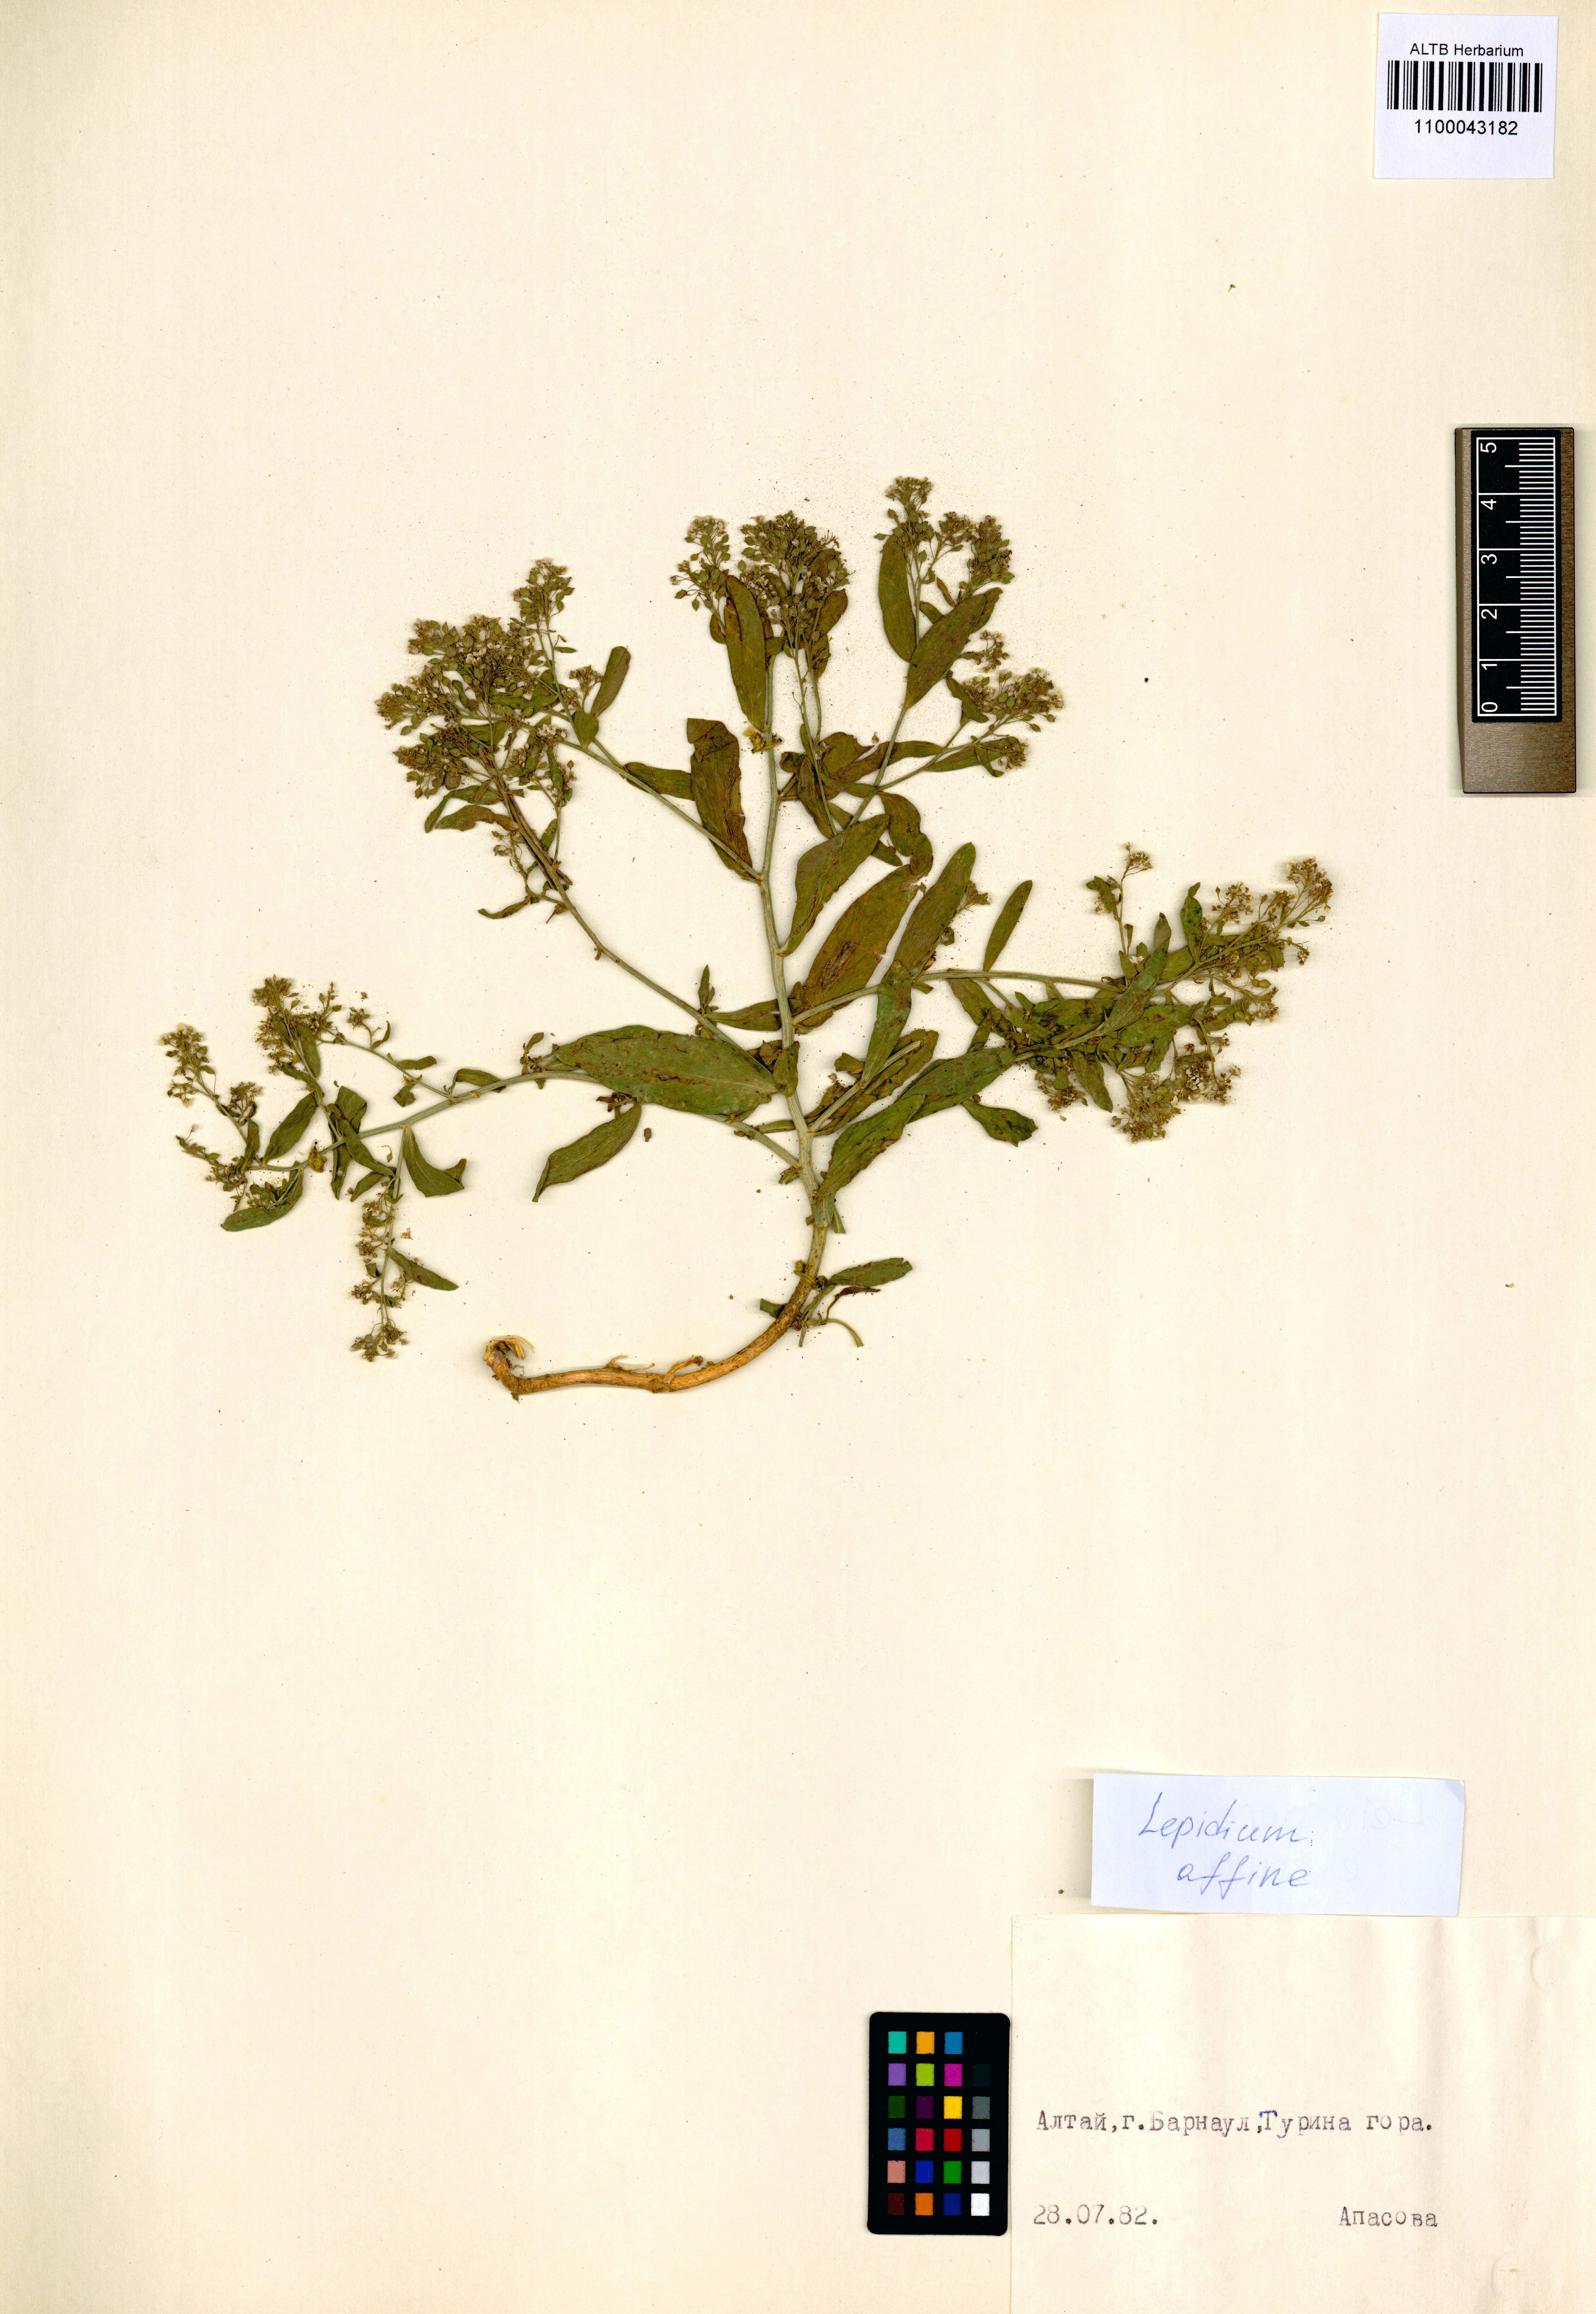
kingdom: Plantae
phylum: Tracheophyta
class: Magnoliopsida
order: Brassicales
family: Brassicaceae
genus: Lepidium
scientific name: Lepidium latifolium
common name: Dittander
